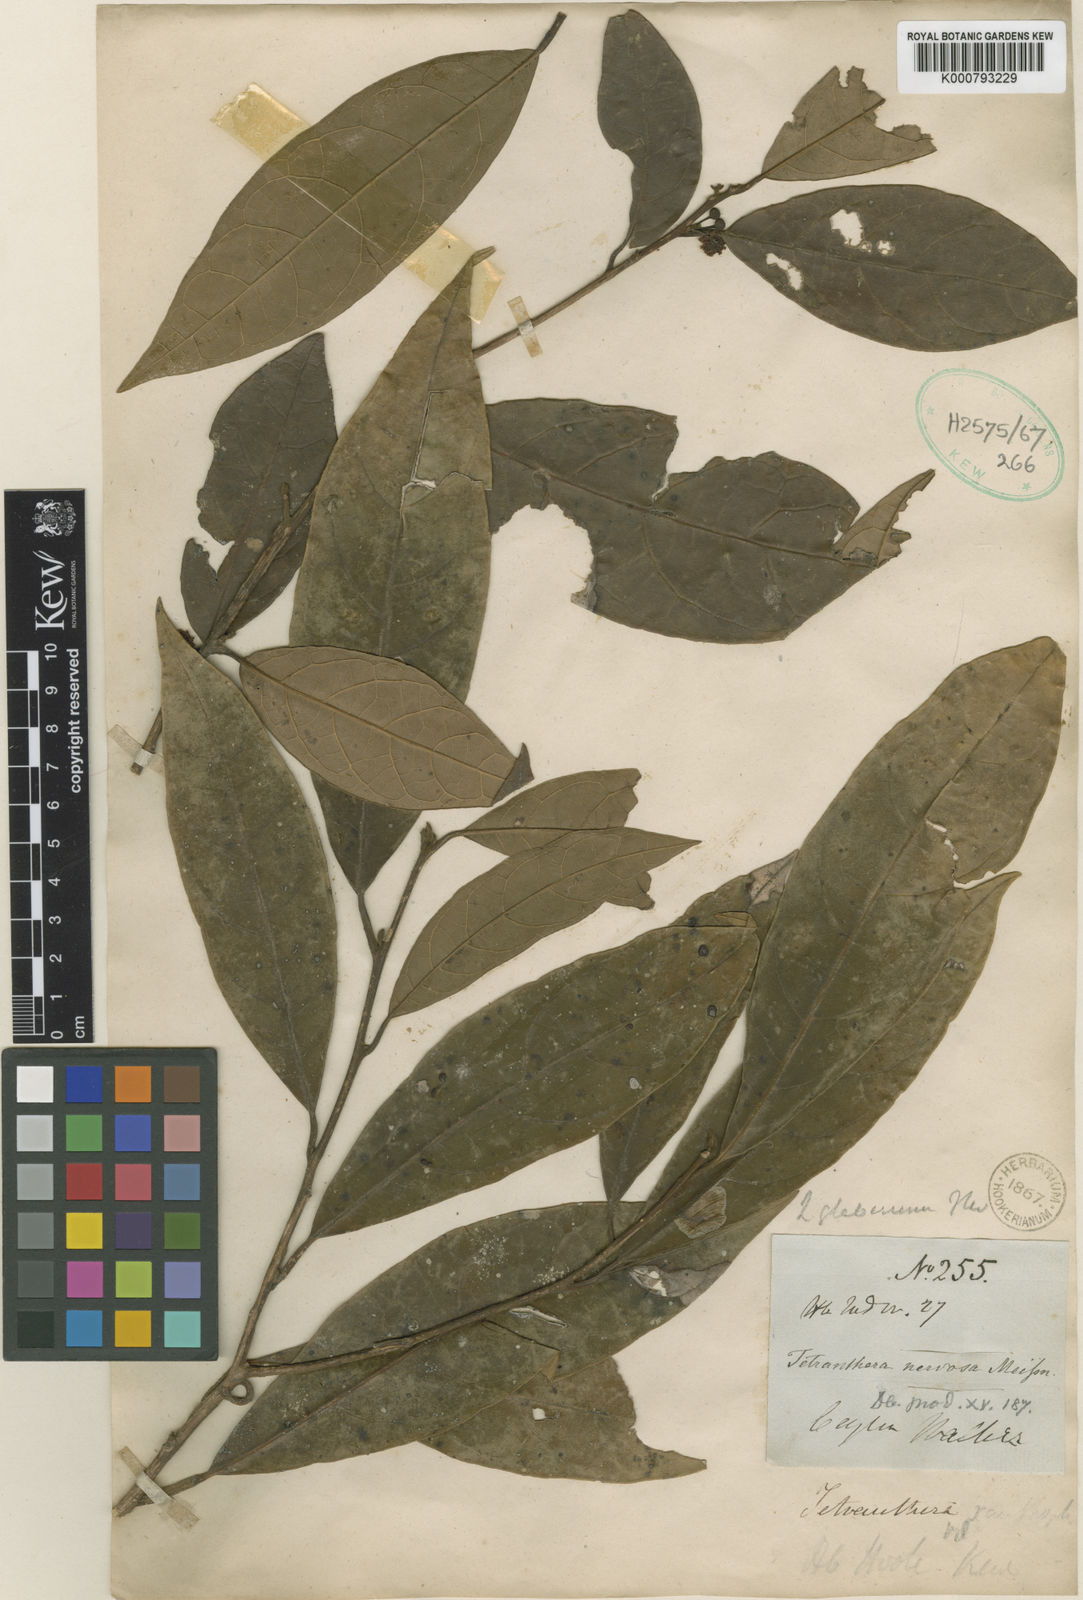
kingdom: Plantae
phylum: Tracheophyta
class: Magnoliopsida
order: Laurales
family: Lauraceae
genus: Litsea
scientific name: Litsea glaberrima
